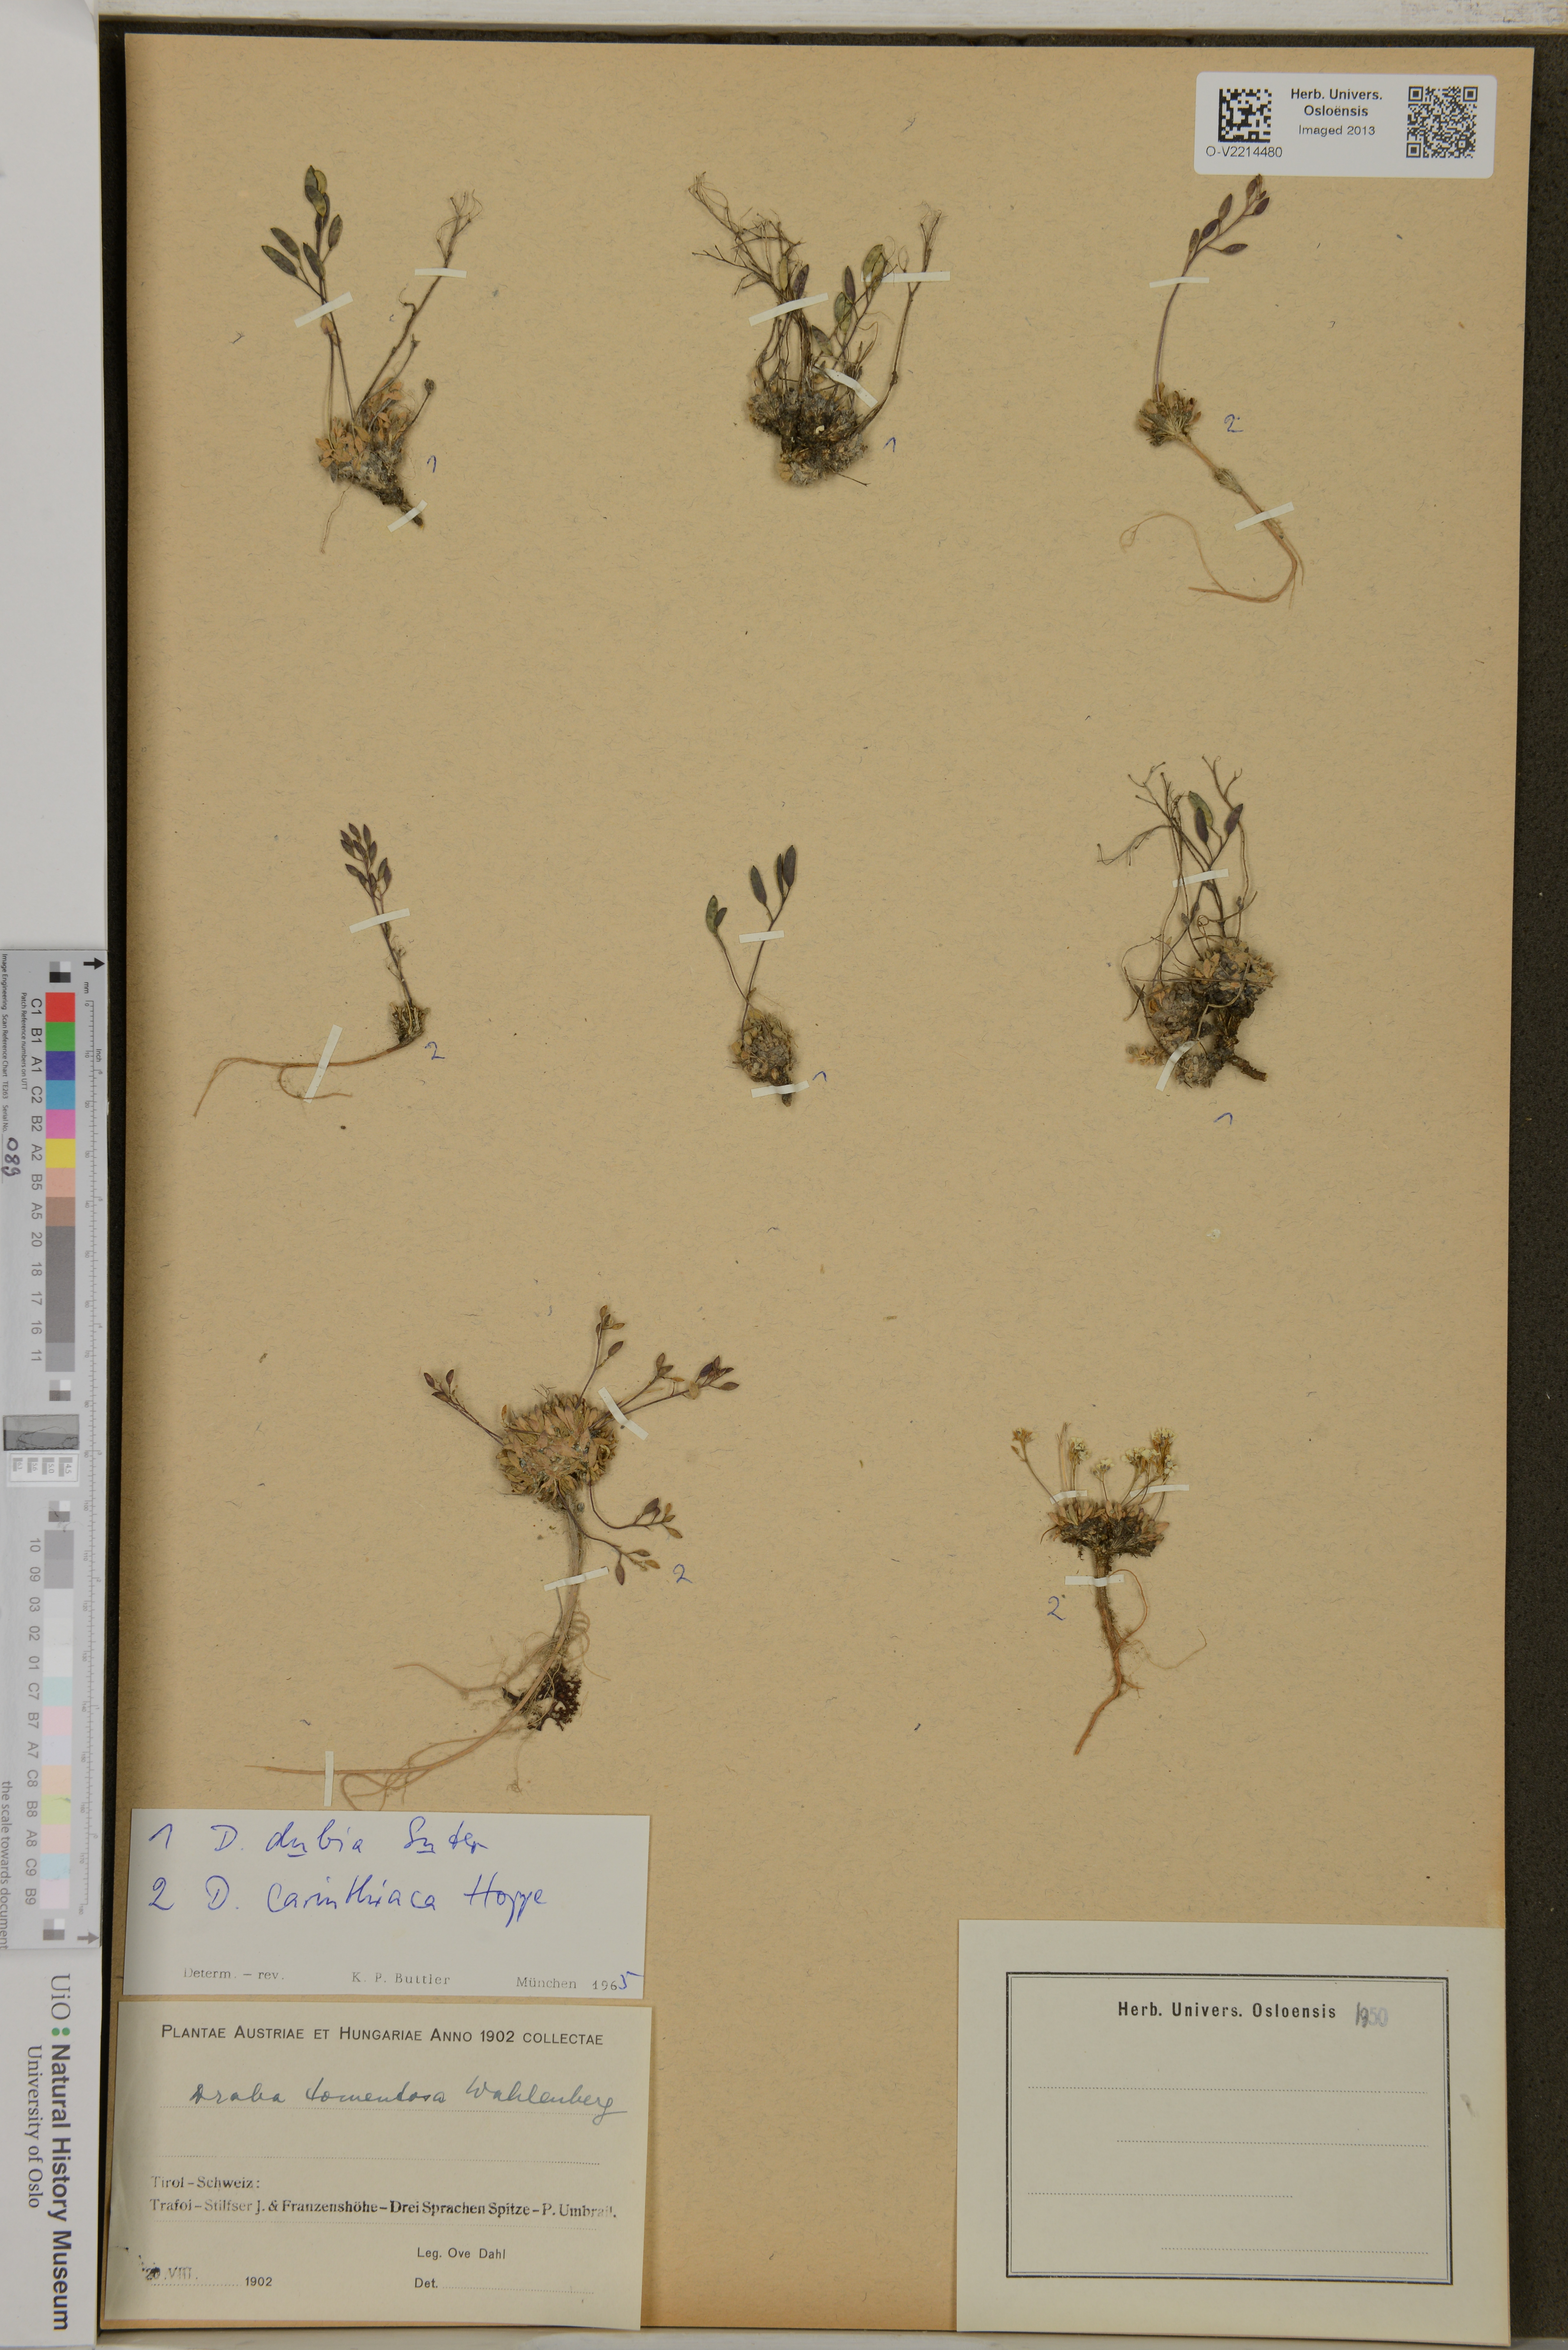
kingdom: Plantae
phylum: Tracheophyta
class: Magnoliopsida
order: Brassicales
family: Brassicaceae
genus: Draba
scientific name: Draba tomentosa
